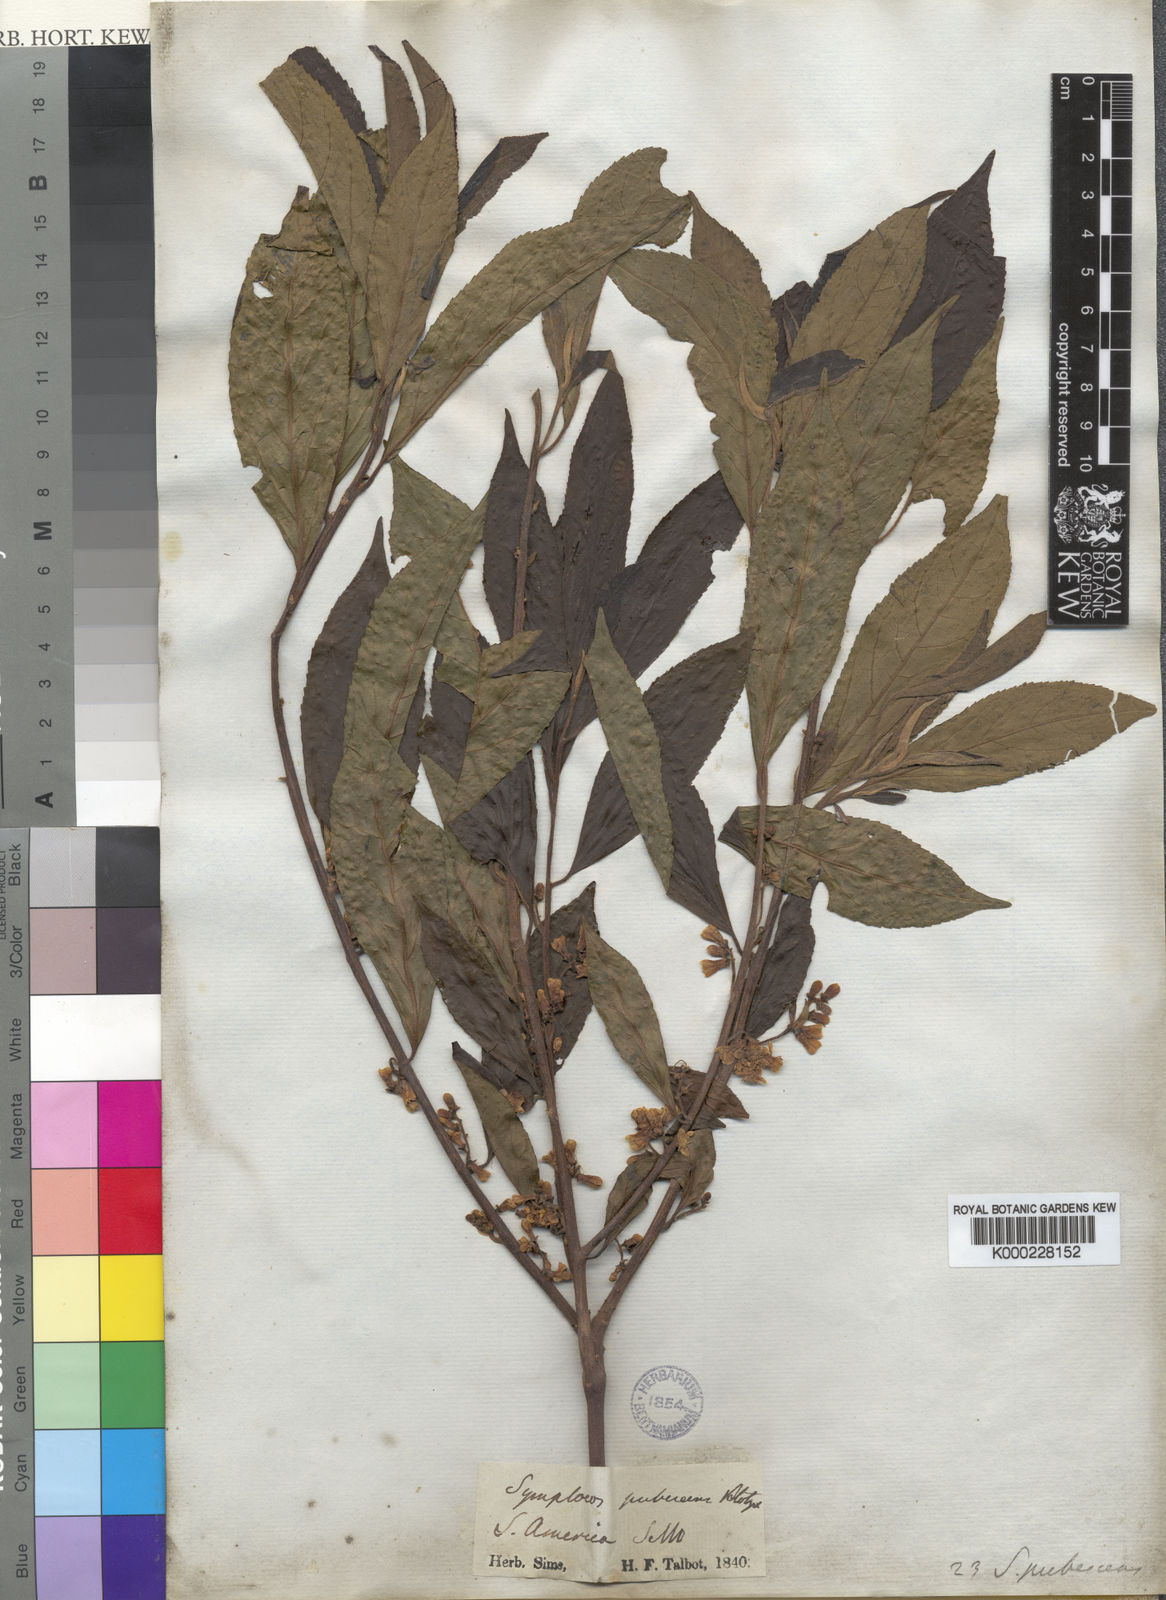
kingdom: Plantae
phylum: Tracheophyta
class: Magnoliopsida
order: Ericales
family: Symplocaceae
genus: Symplocos
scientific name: Symplocos pubescens
